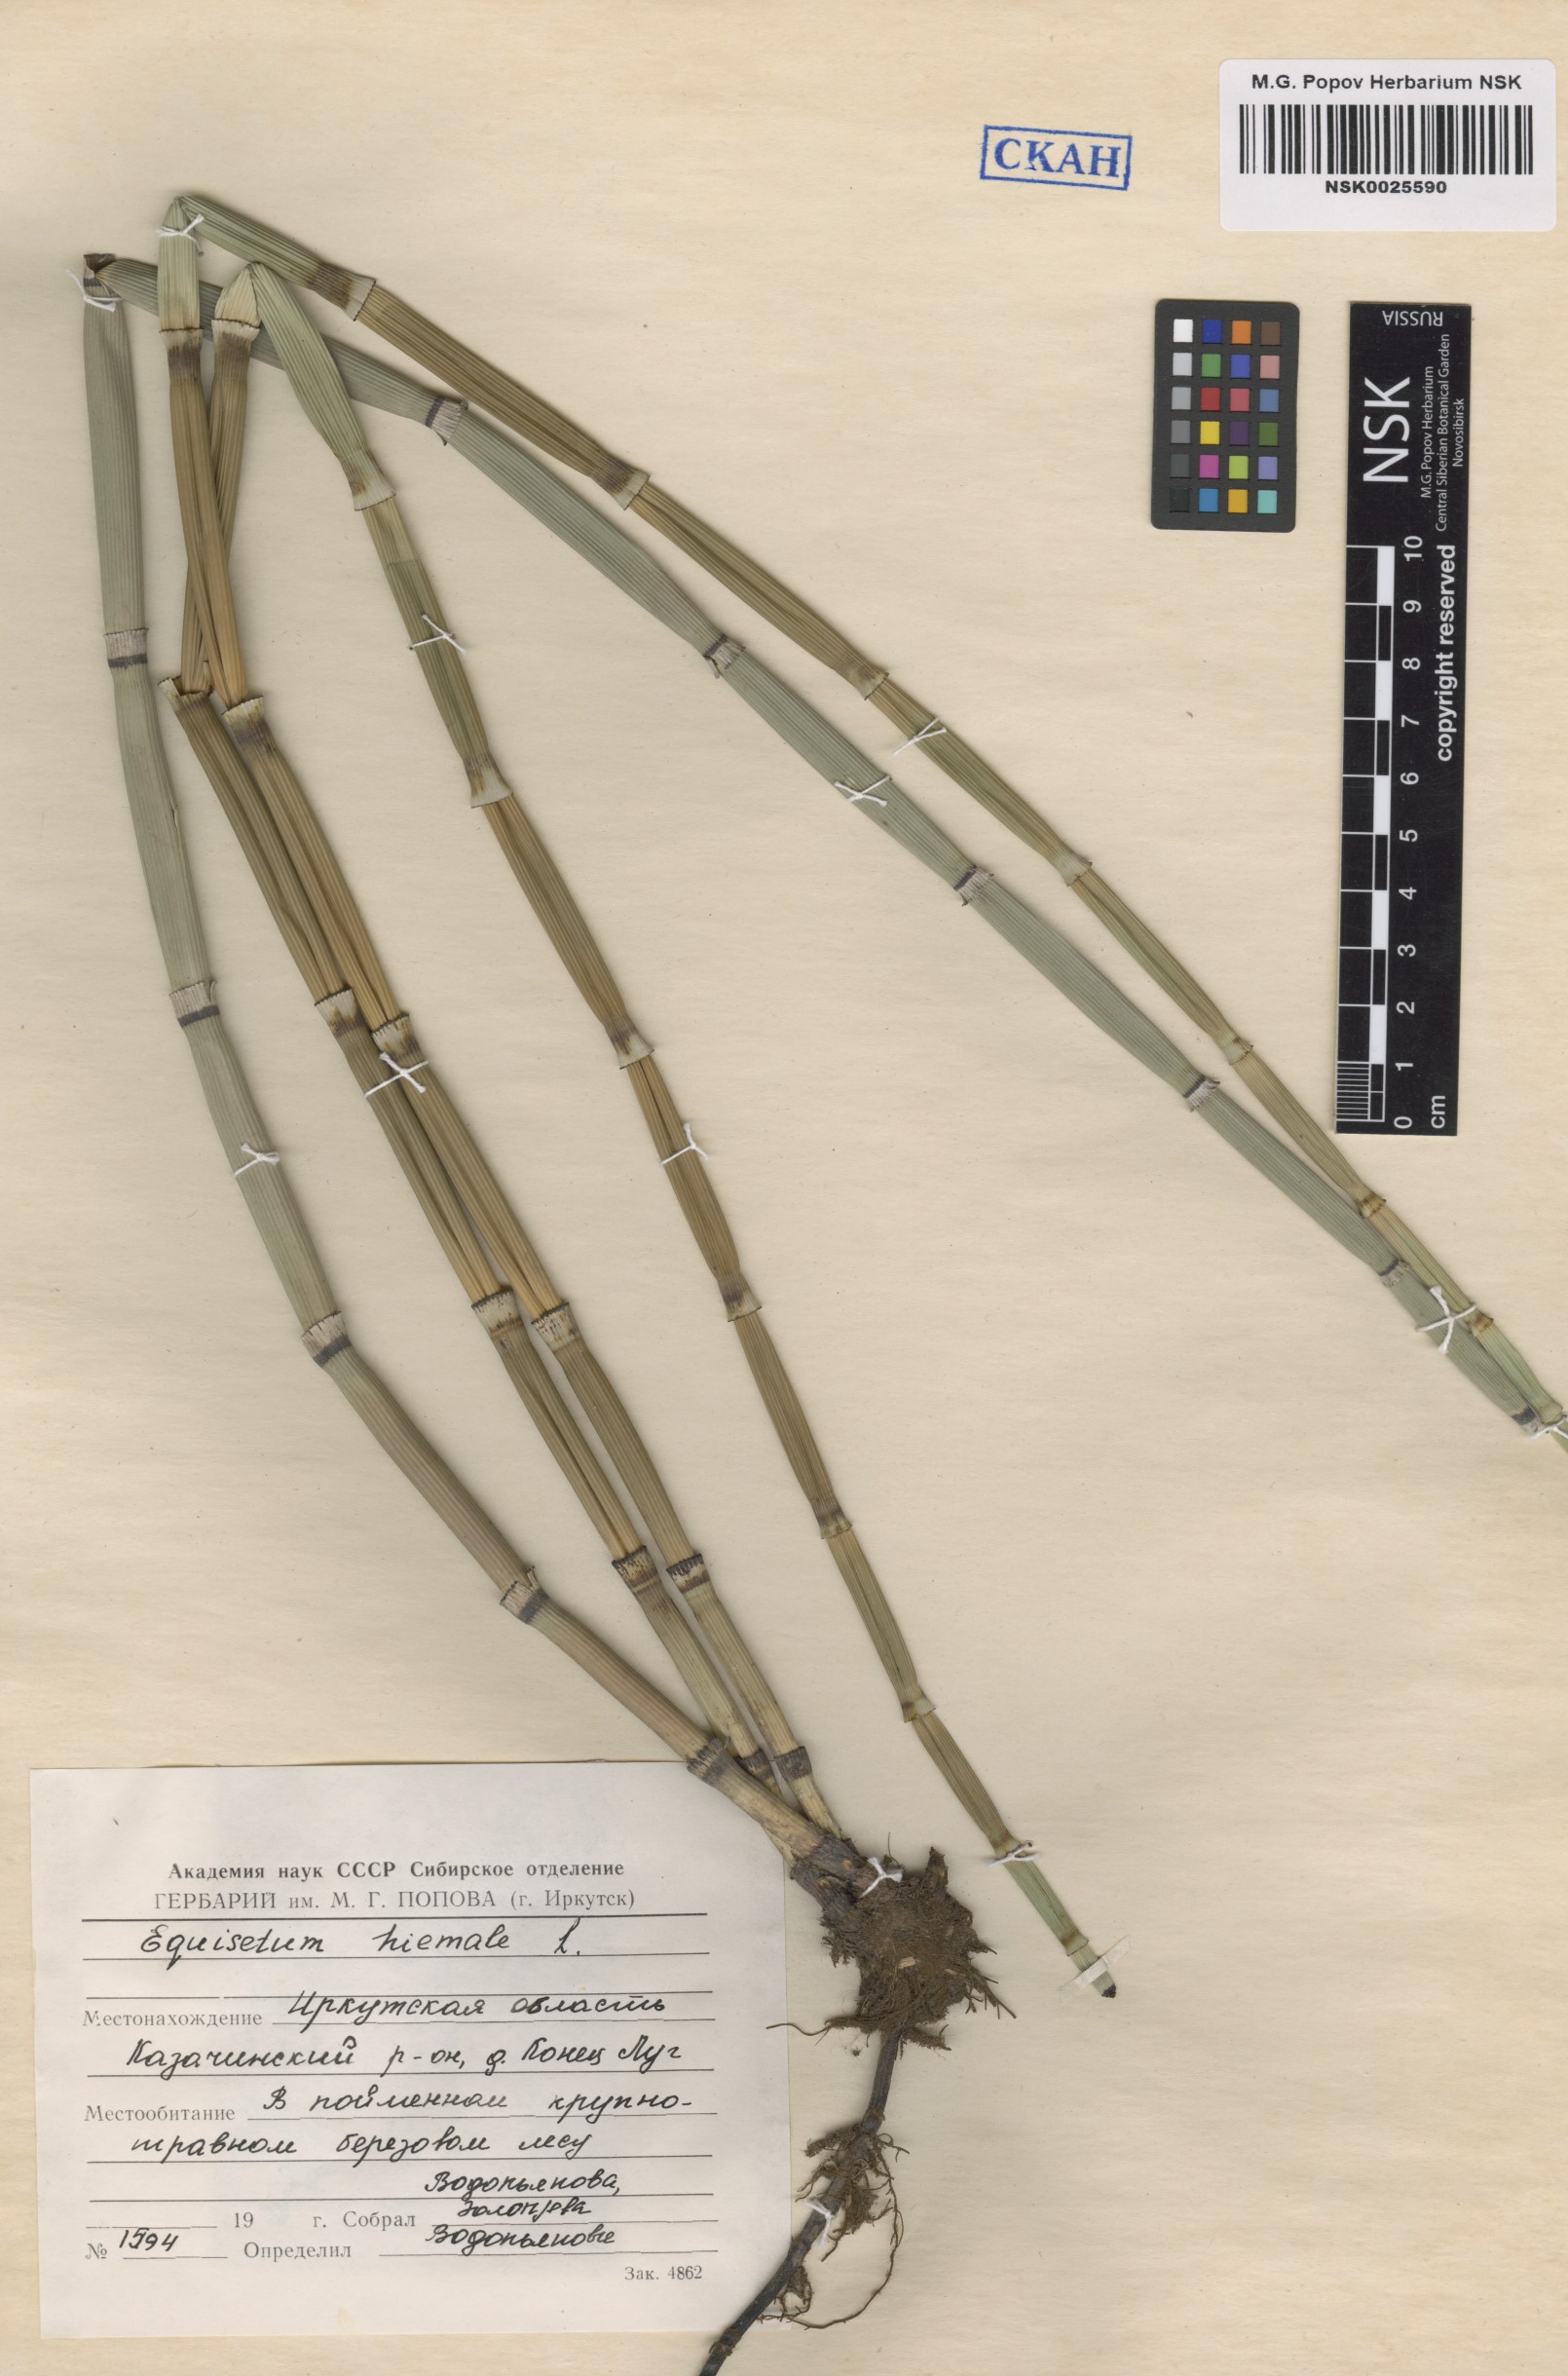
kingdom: Plantae
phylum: Tracheophyta
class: Polypodiopsida
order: Equisetales
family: Equisetaceae
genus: Equisetum
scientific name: Equisetum hyemale
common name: Rough horsetail
